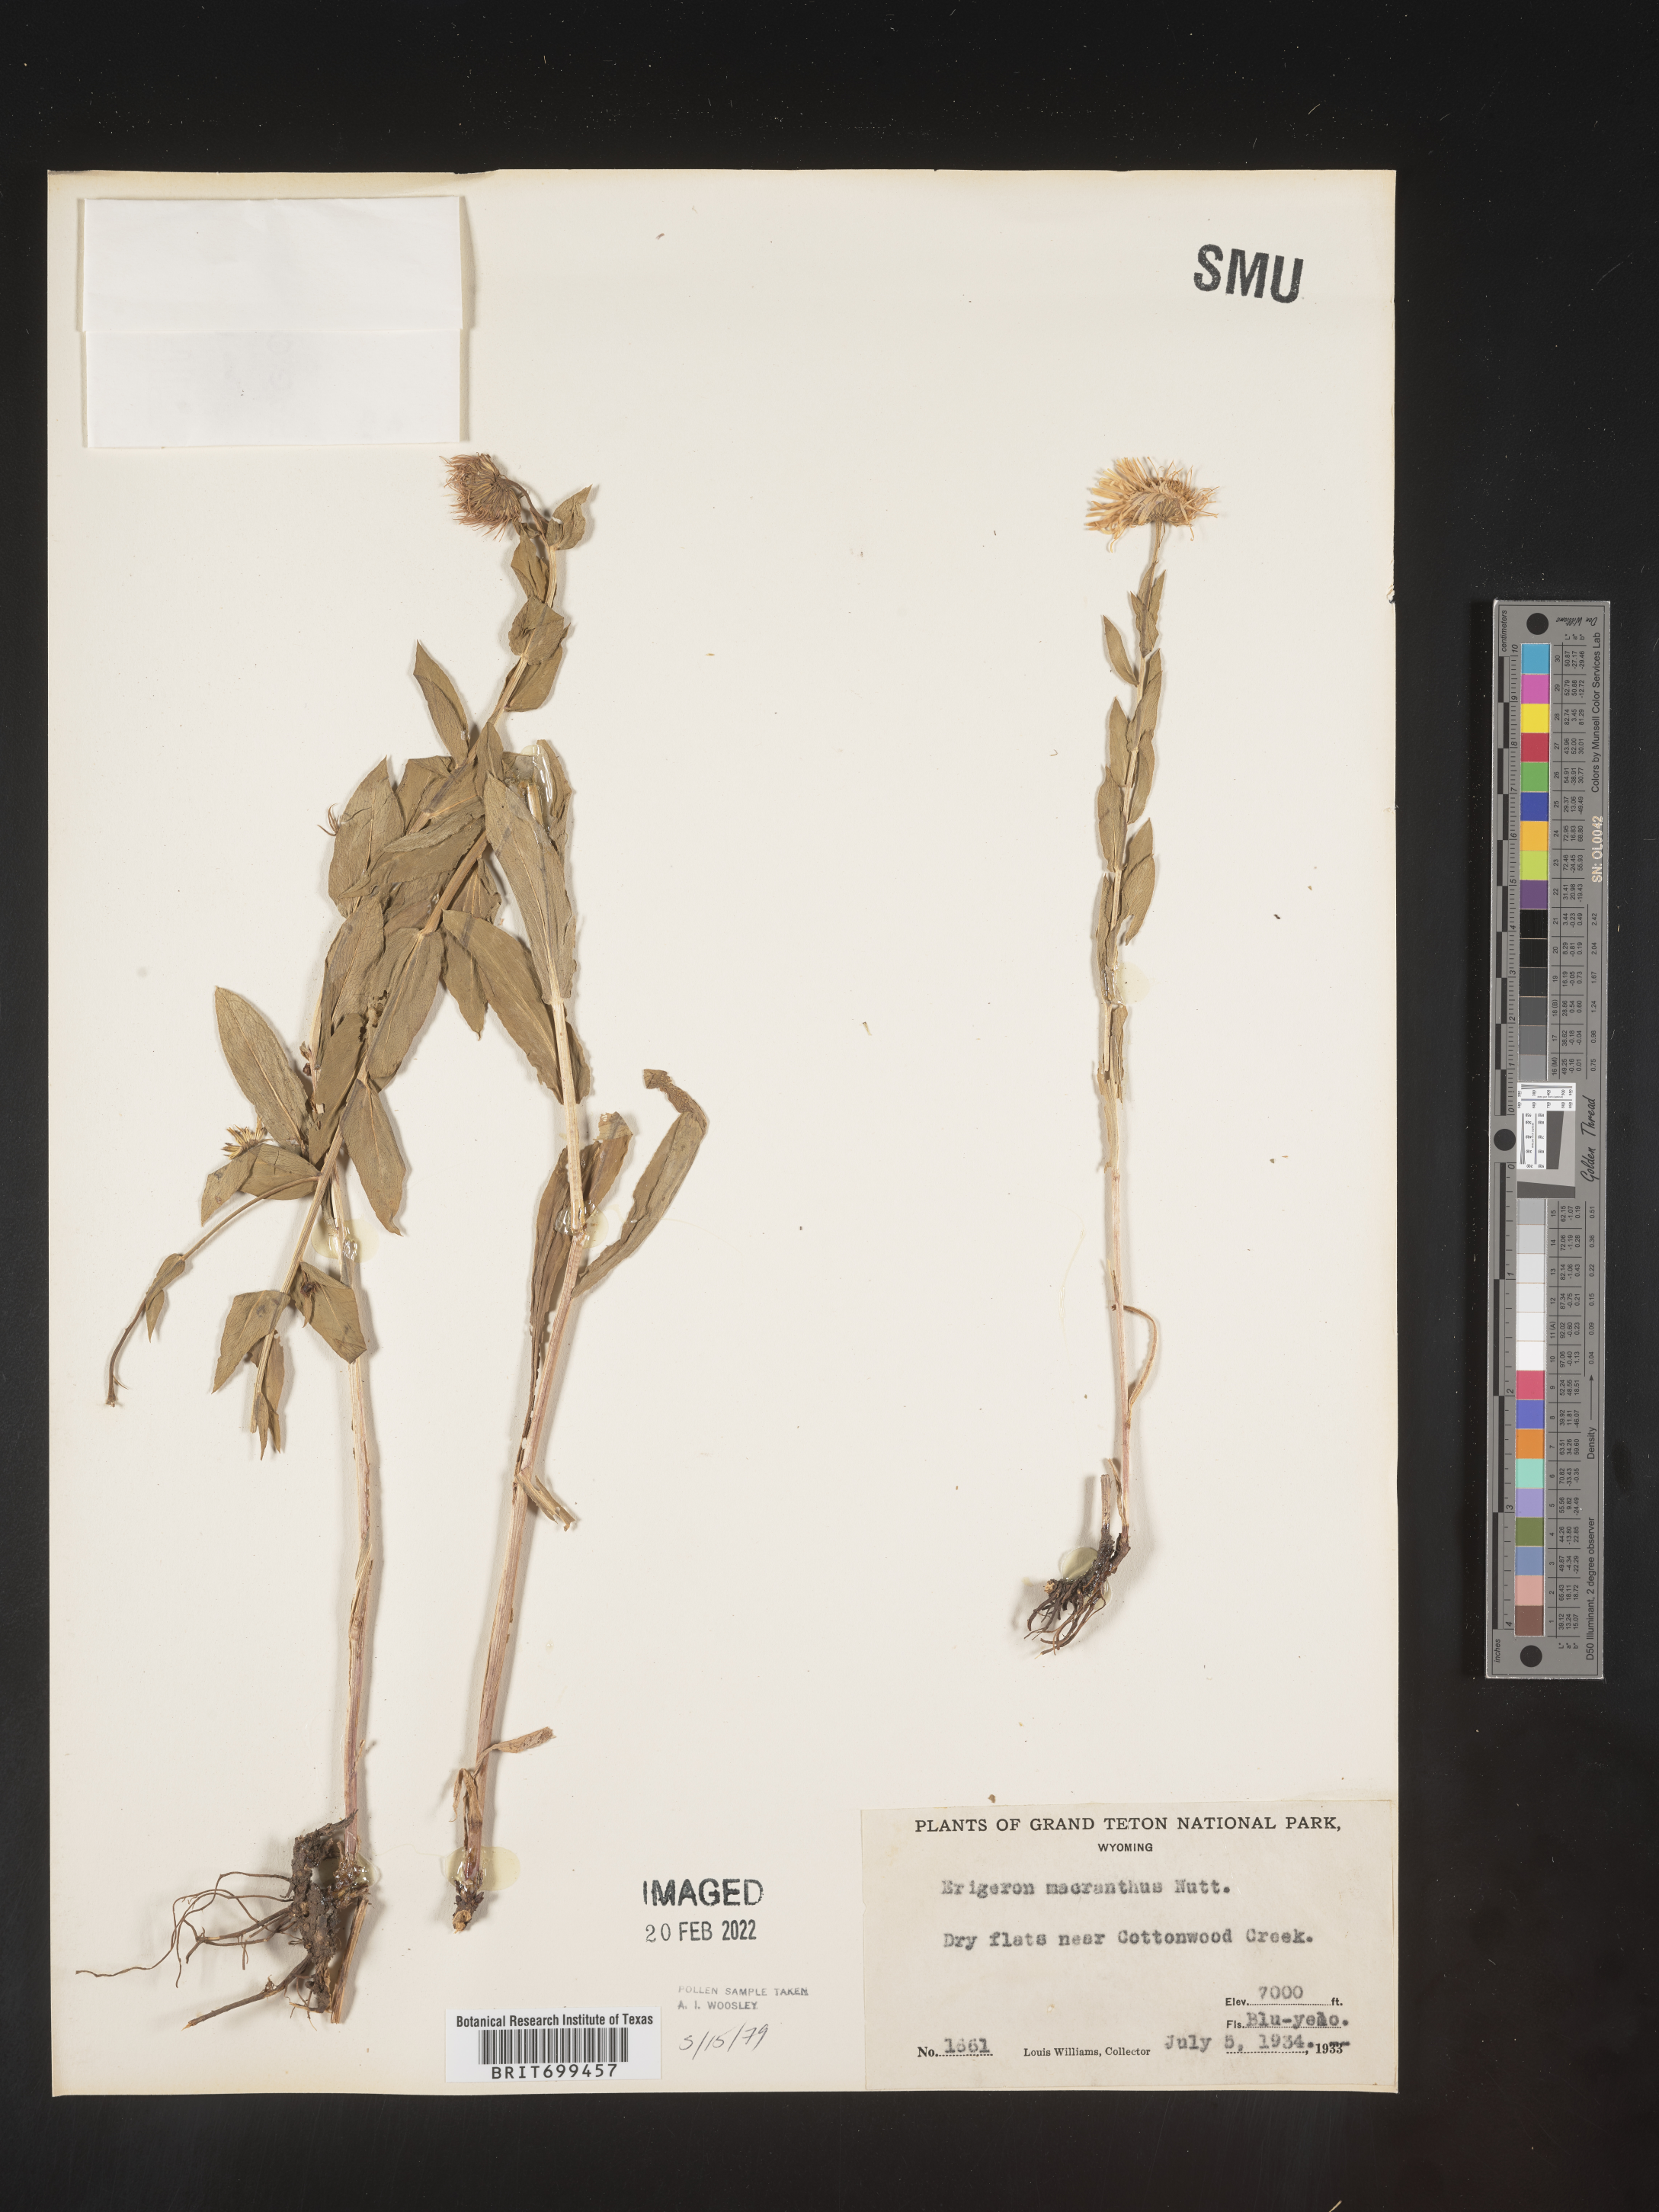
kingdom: Plantae
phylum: Tracheophyta
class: Magnoliopsida
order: Asterales
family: Asteraceae
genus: Erigeron
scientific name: Erigeron speciosus
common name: Aspen fleabane
